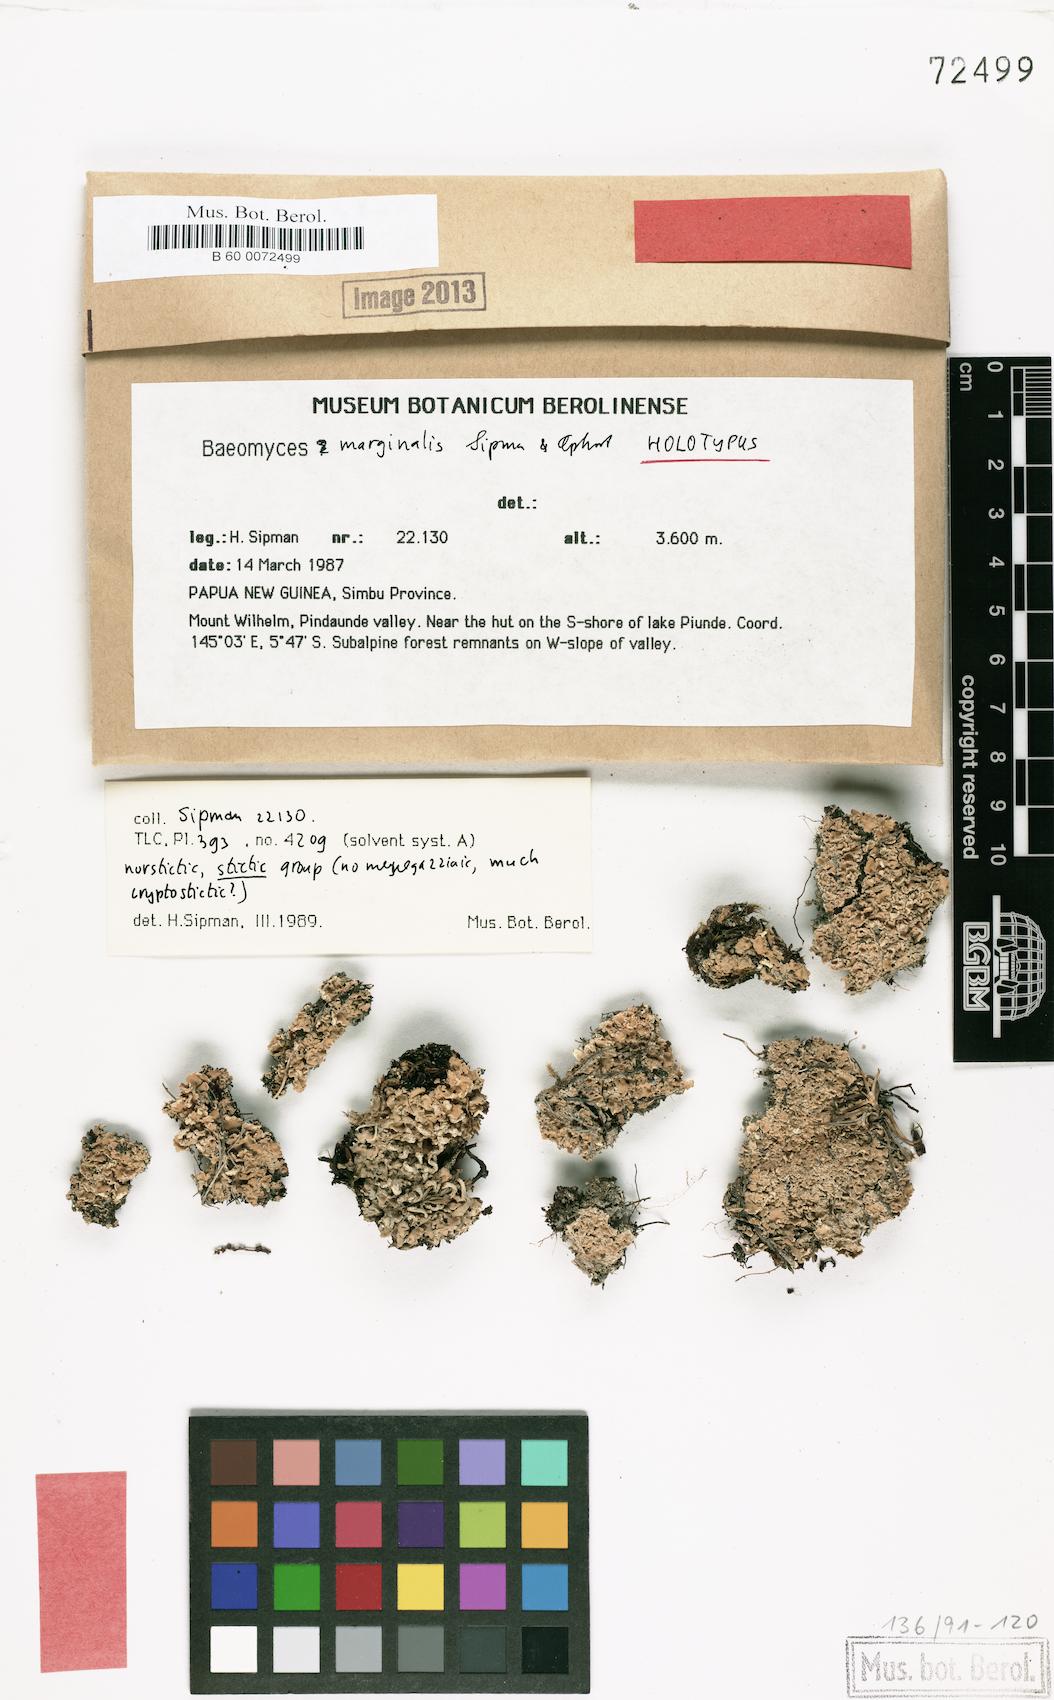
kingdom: Fungi
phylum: Ascomycota
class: Lecanoromycetes
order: Baeomycetales
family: Baeomycetaceae
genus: Baeomyces
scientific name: Baeomyces marginalis
